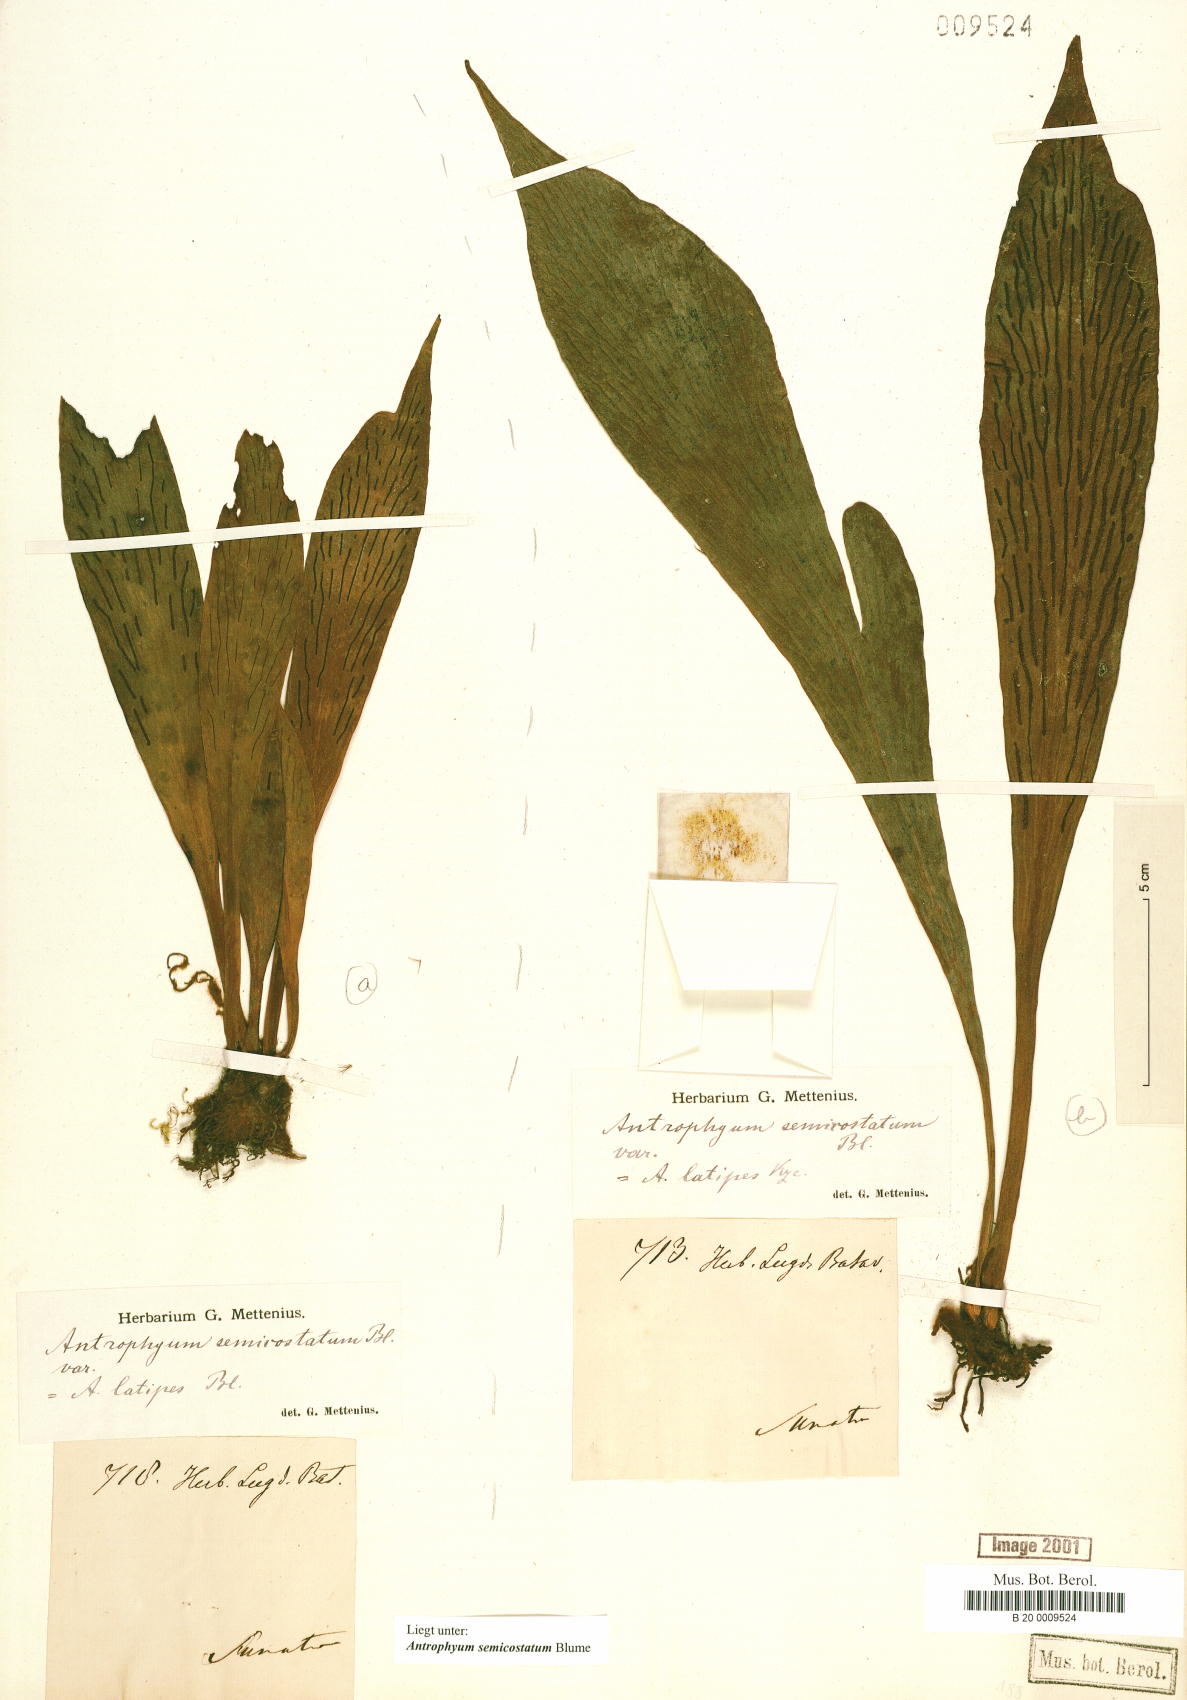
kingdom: Plantae
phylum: Tracheophyta
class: Polypodiopsida
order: Polypodiales
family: Pteridaceae
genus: Antrophyum
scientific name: Antrophyum semicostatum
